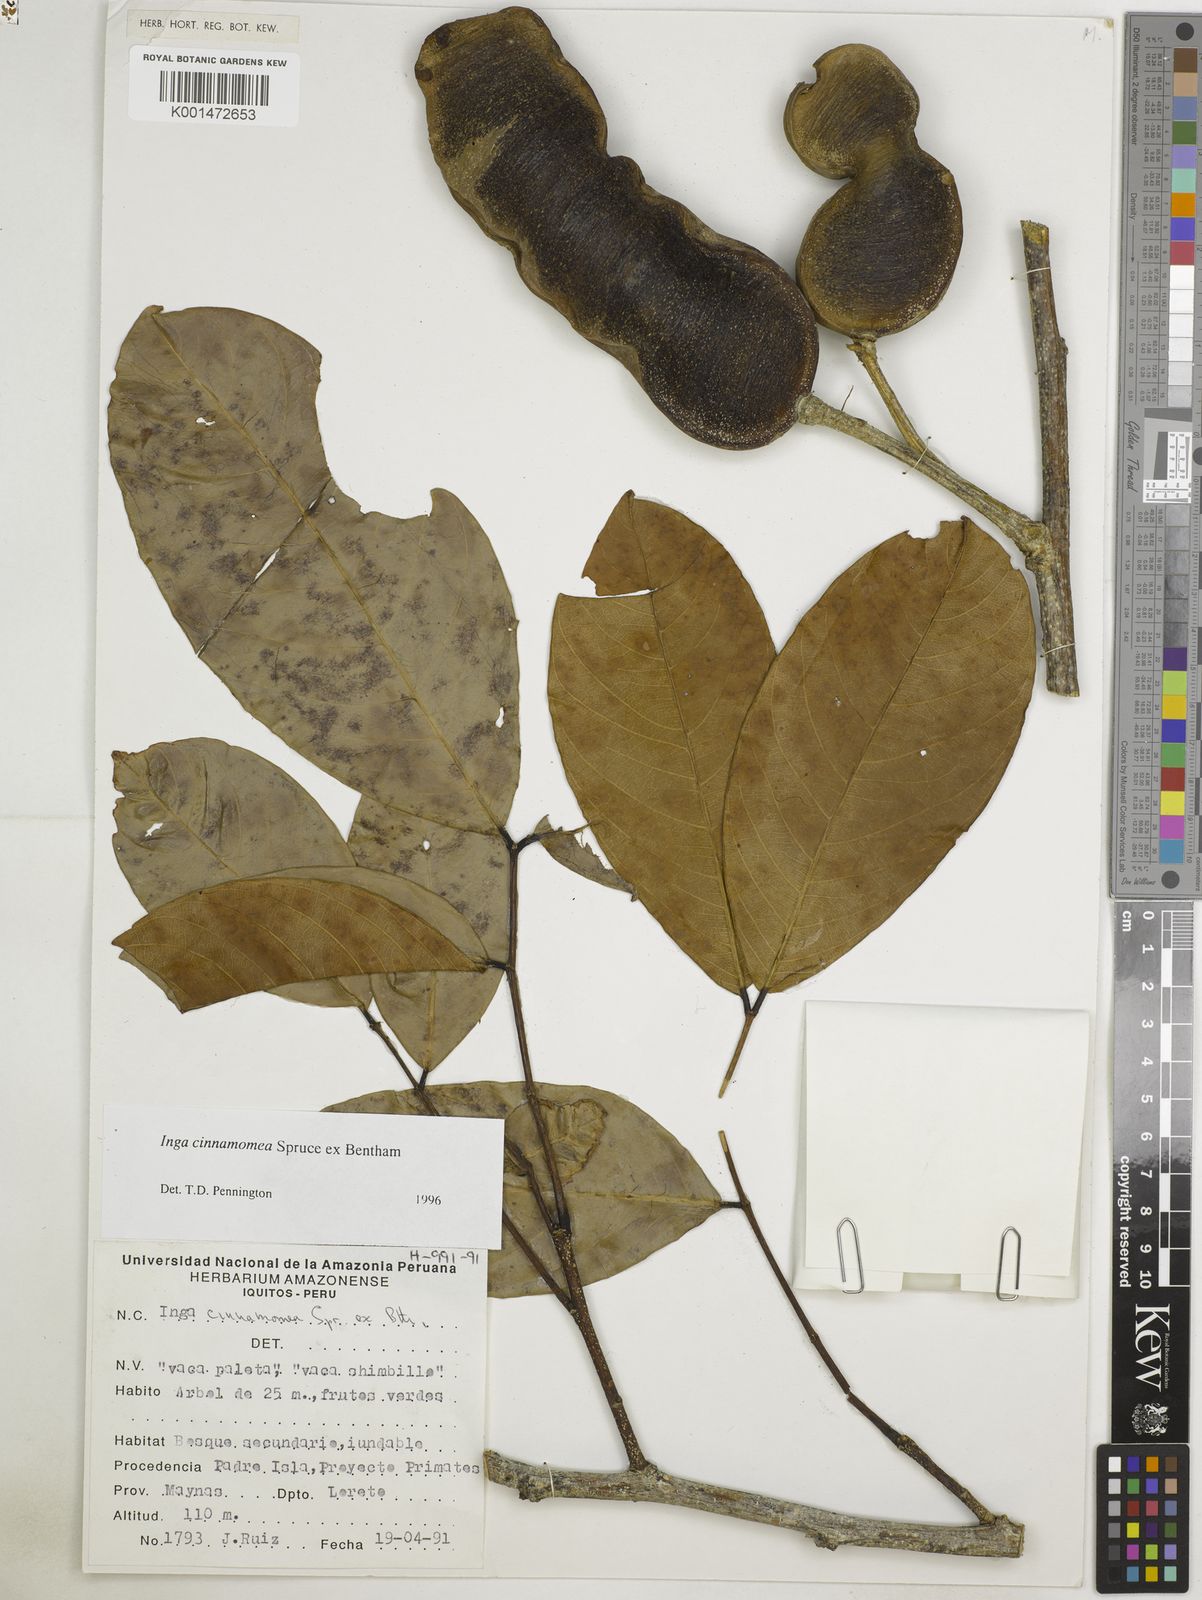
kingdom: Plantae
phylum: Tracheophyta
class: Magnoliopsida
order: Fabales
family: Fabaceae
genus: Inga
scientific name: Inga cinnamomea
